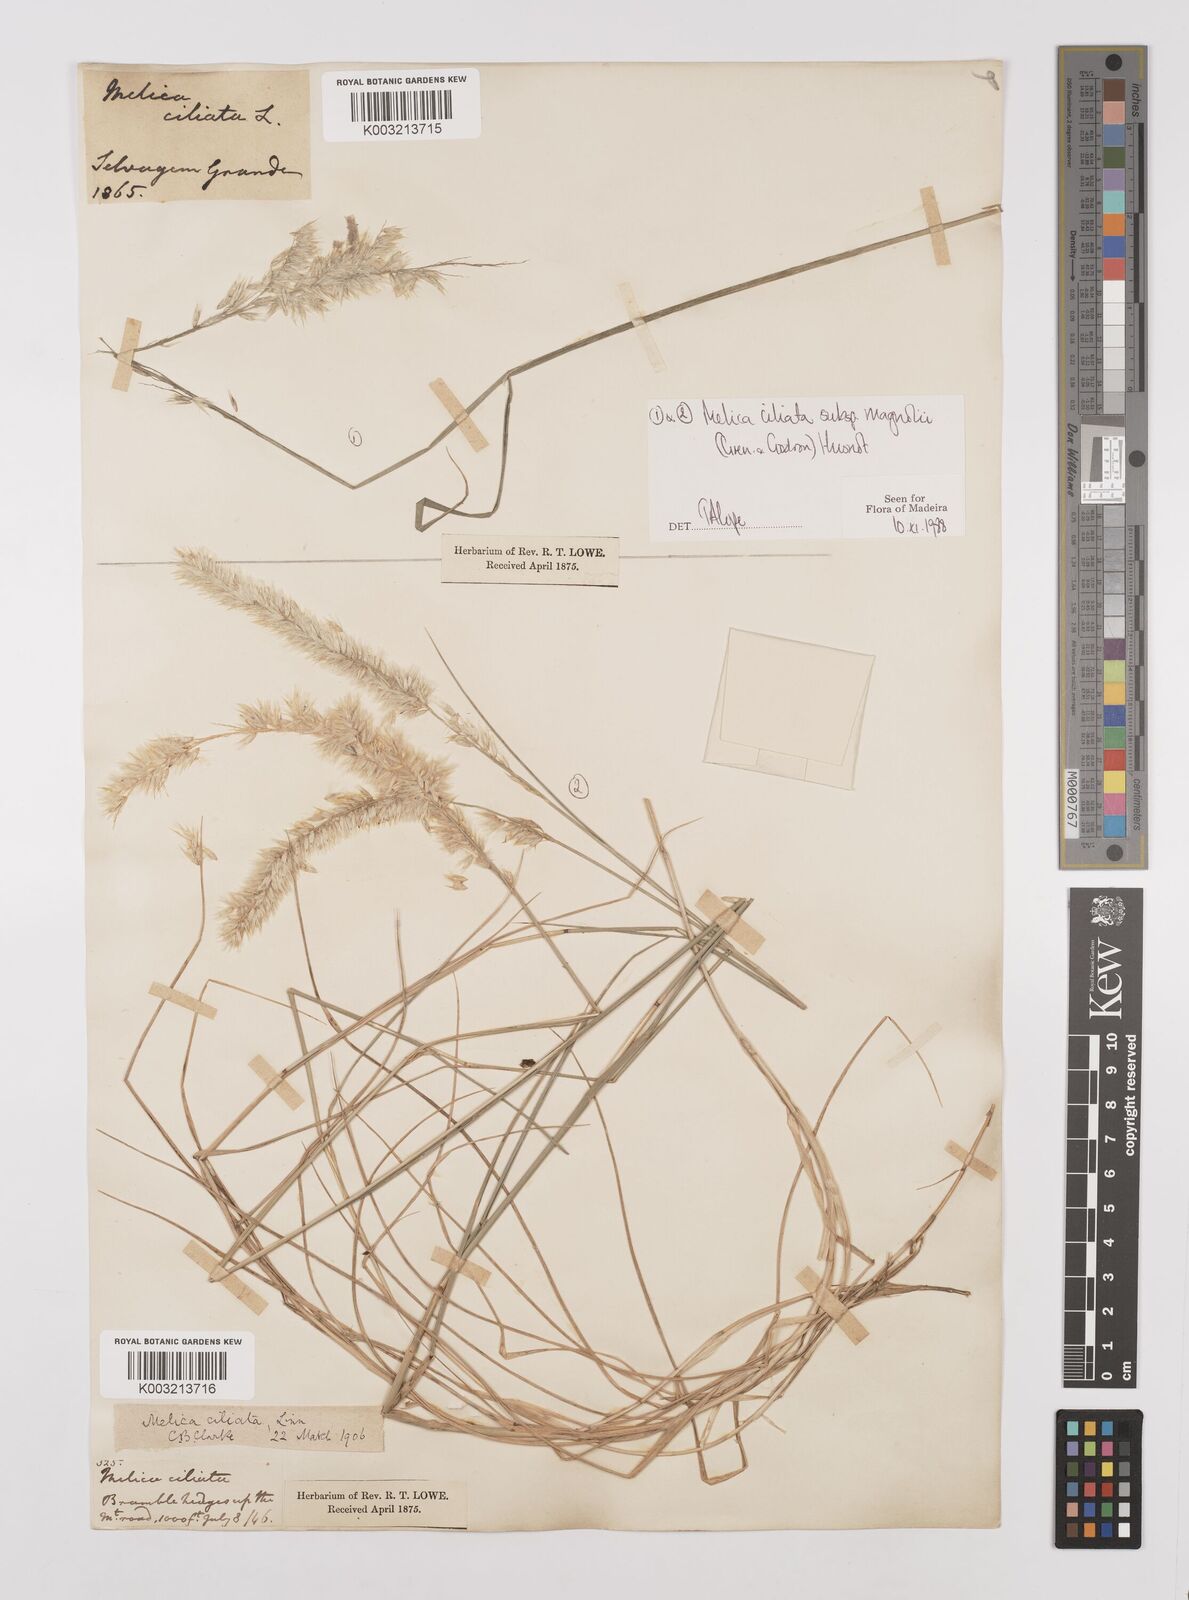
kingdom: Plantae
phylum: Tracheophyta
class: Liliopsida
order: Poales
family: Poaceae
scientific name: Poaceae
